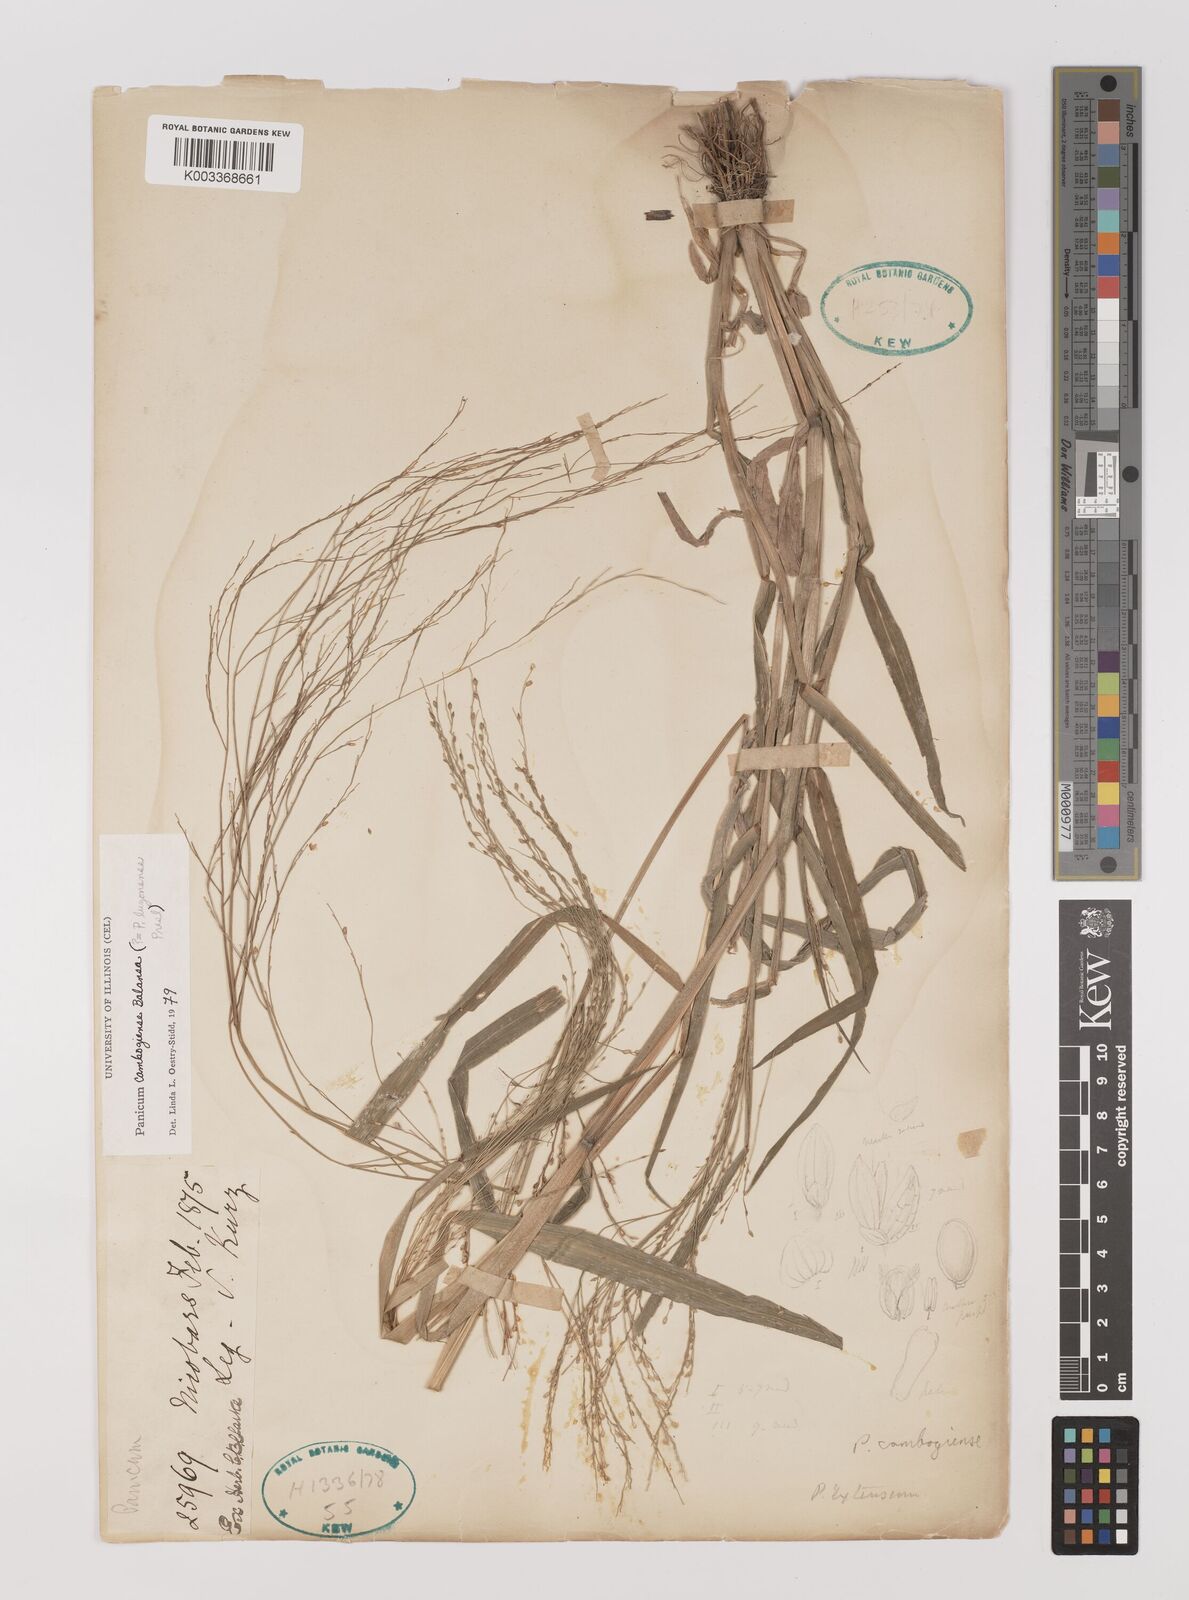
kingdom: Plantae
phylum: Tracheophyta
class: Liliopsida
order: Poales
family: Poaceae
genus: Panicum
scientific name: Panicum luzonense
